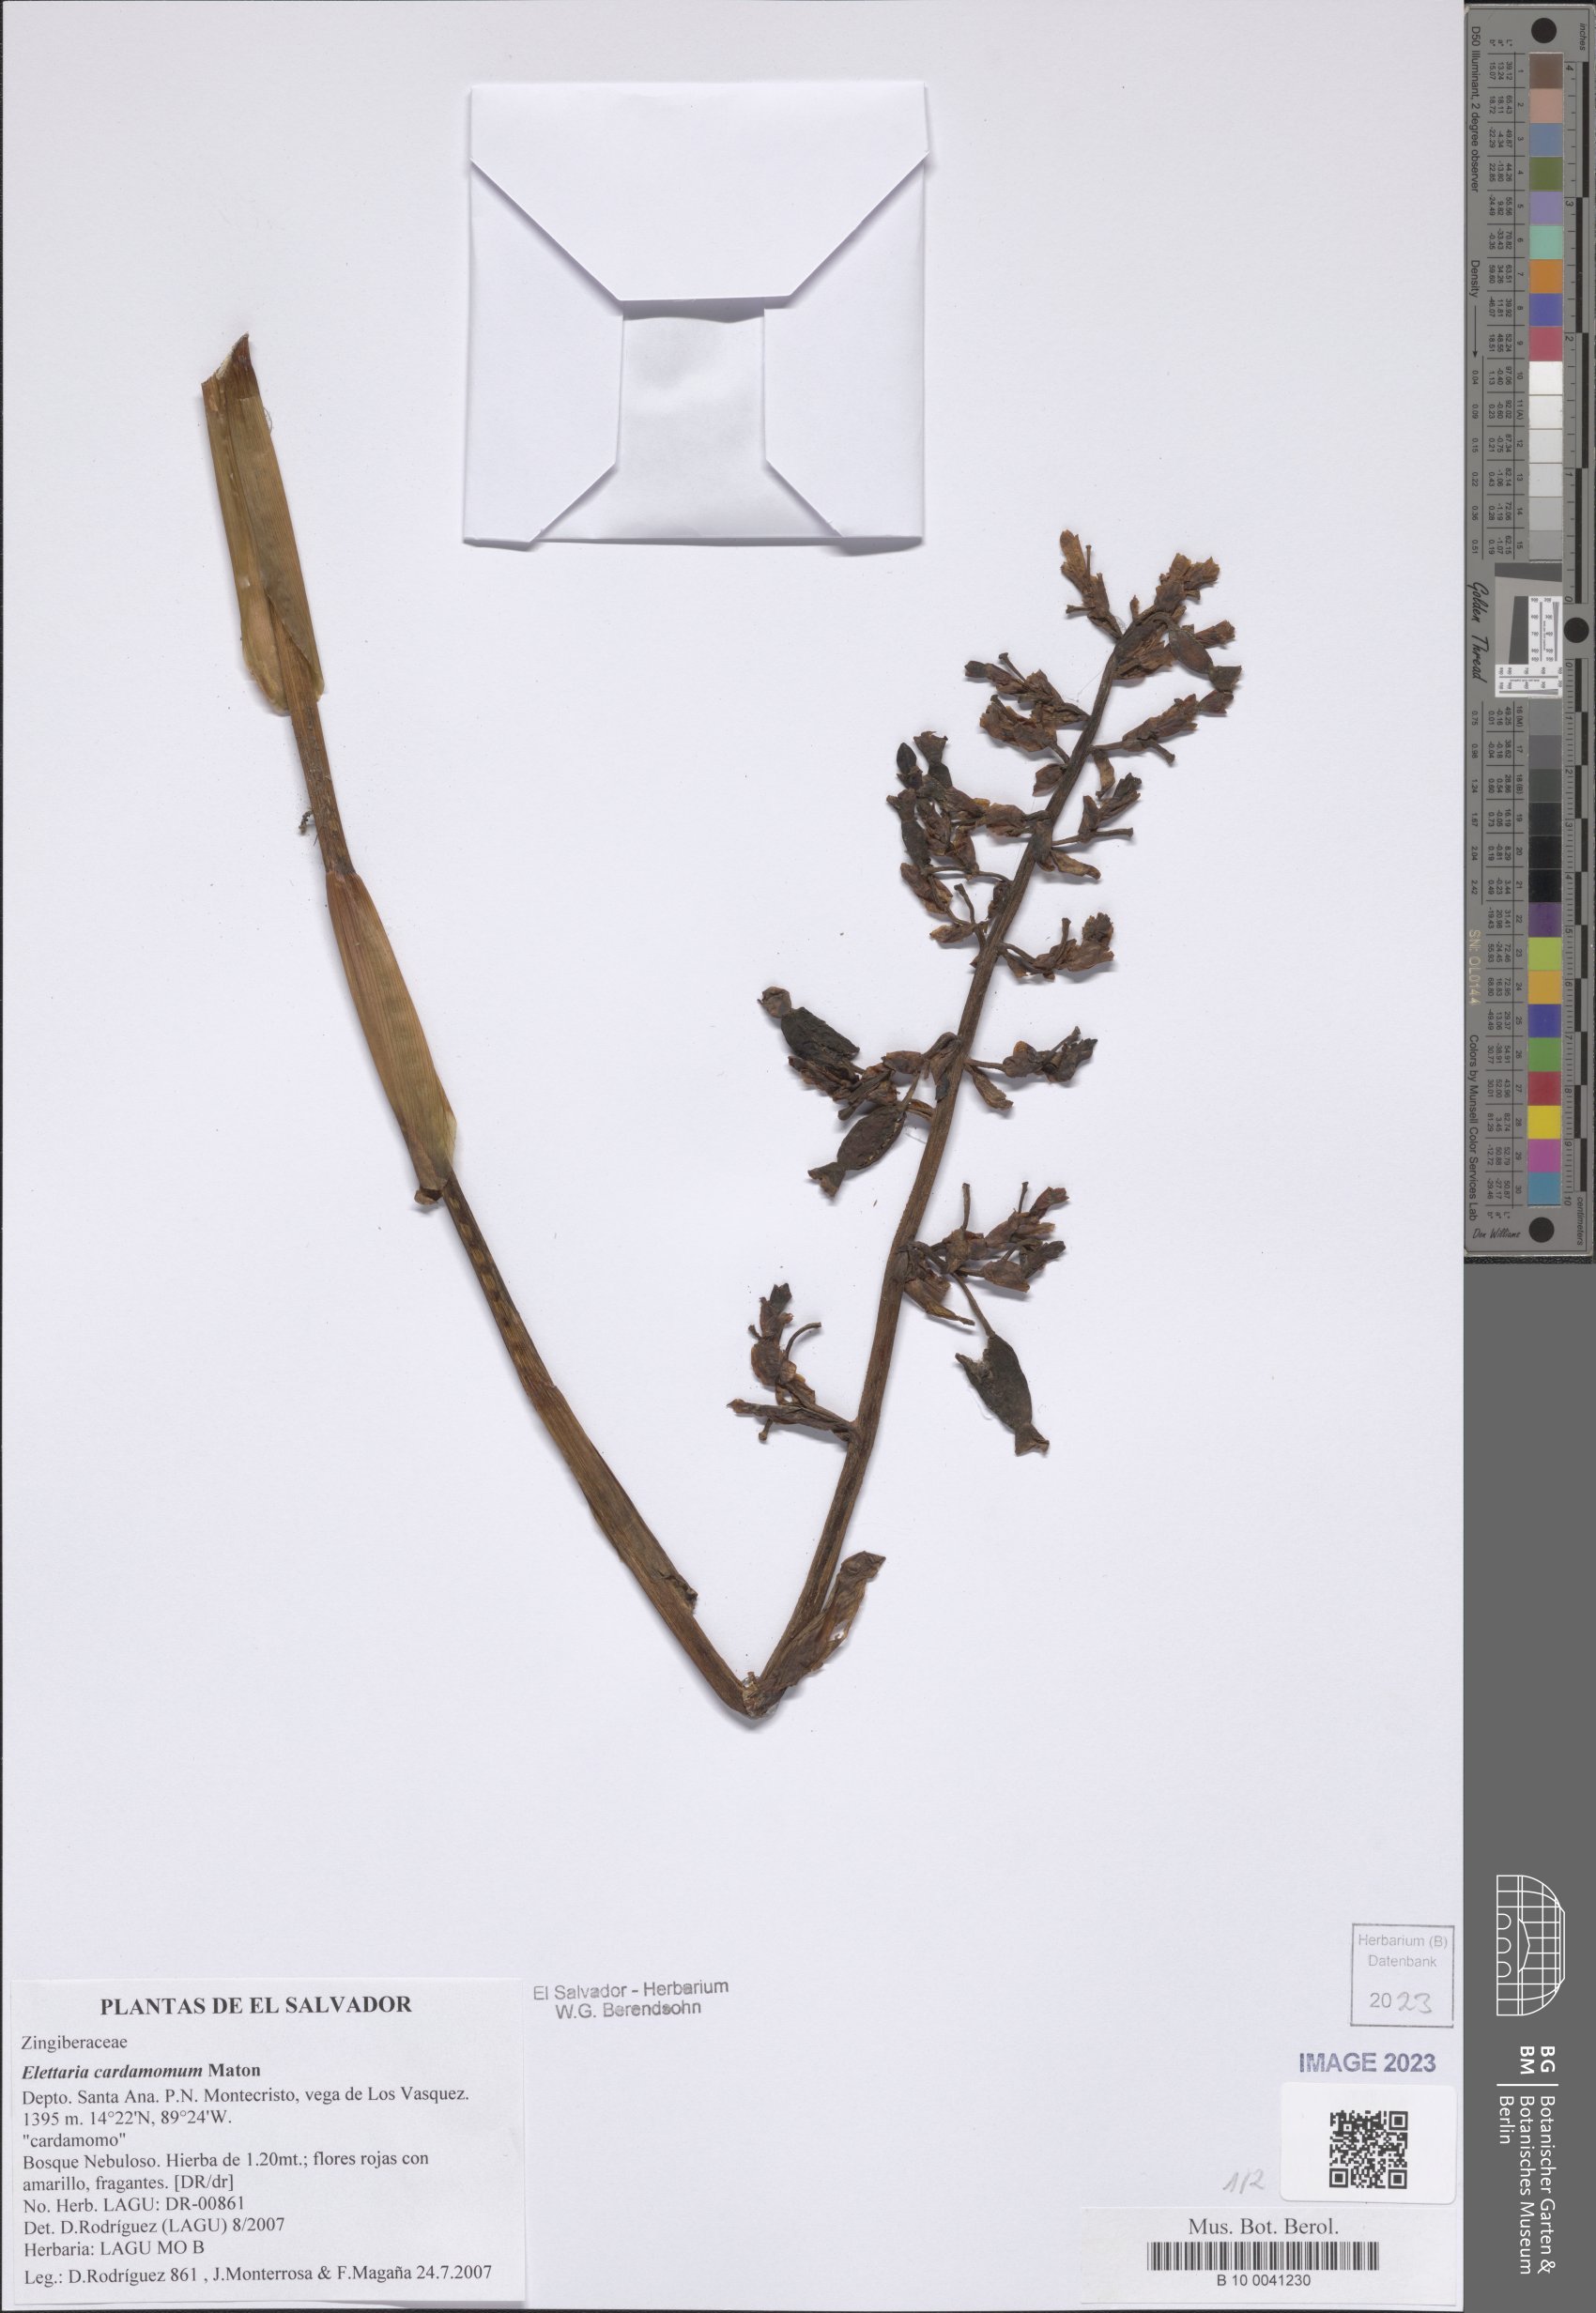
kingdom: Plantae
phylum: Tracheophyta
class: Liliopsida
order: Zingiberales
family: Zingiberaceae
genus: Renealmia
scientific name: Renealmia pacifica
